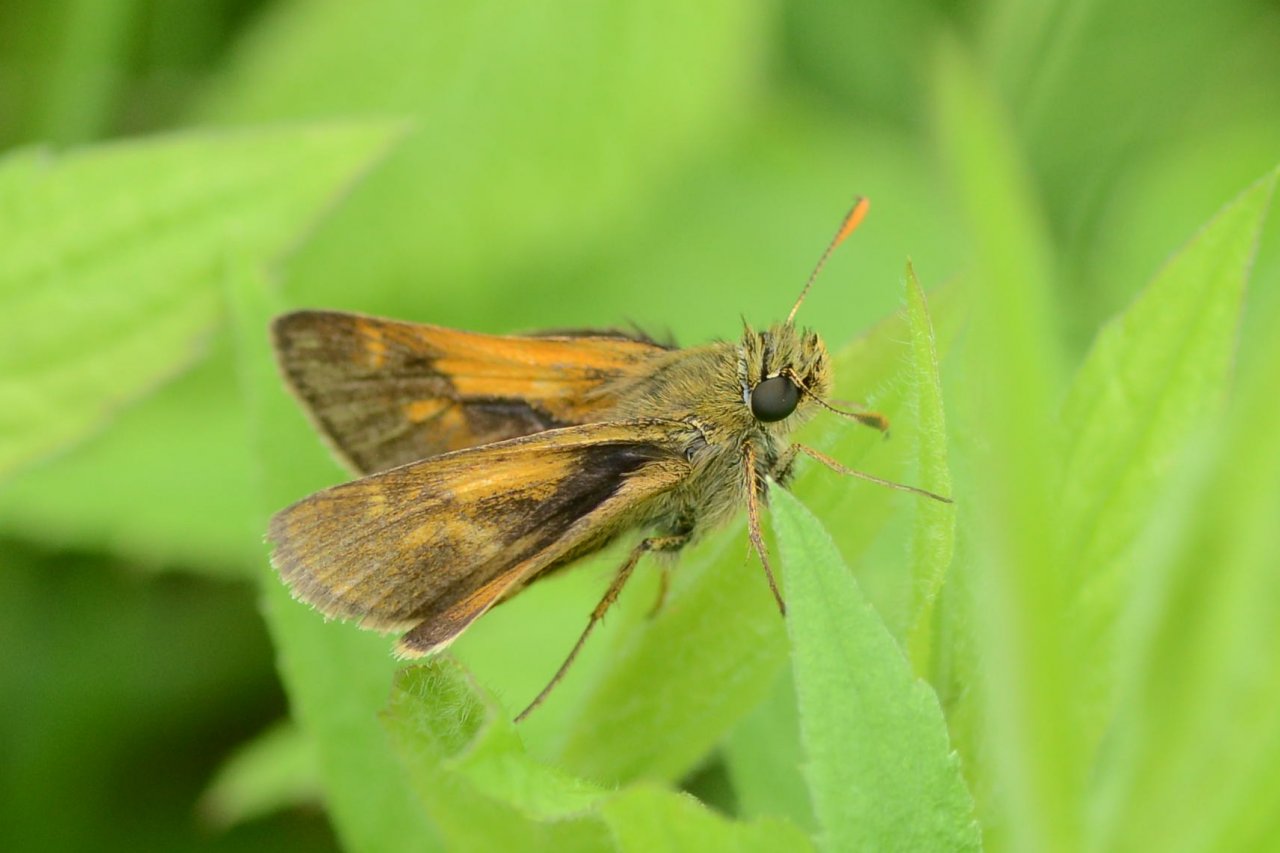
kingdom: Animalia
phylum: Arthropoda
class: Insecta
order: Lepidoptera
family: Hesperiidae
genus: Polites
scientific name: Polites
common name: Long Dash Skipper
